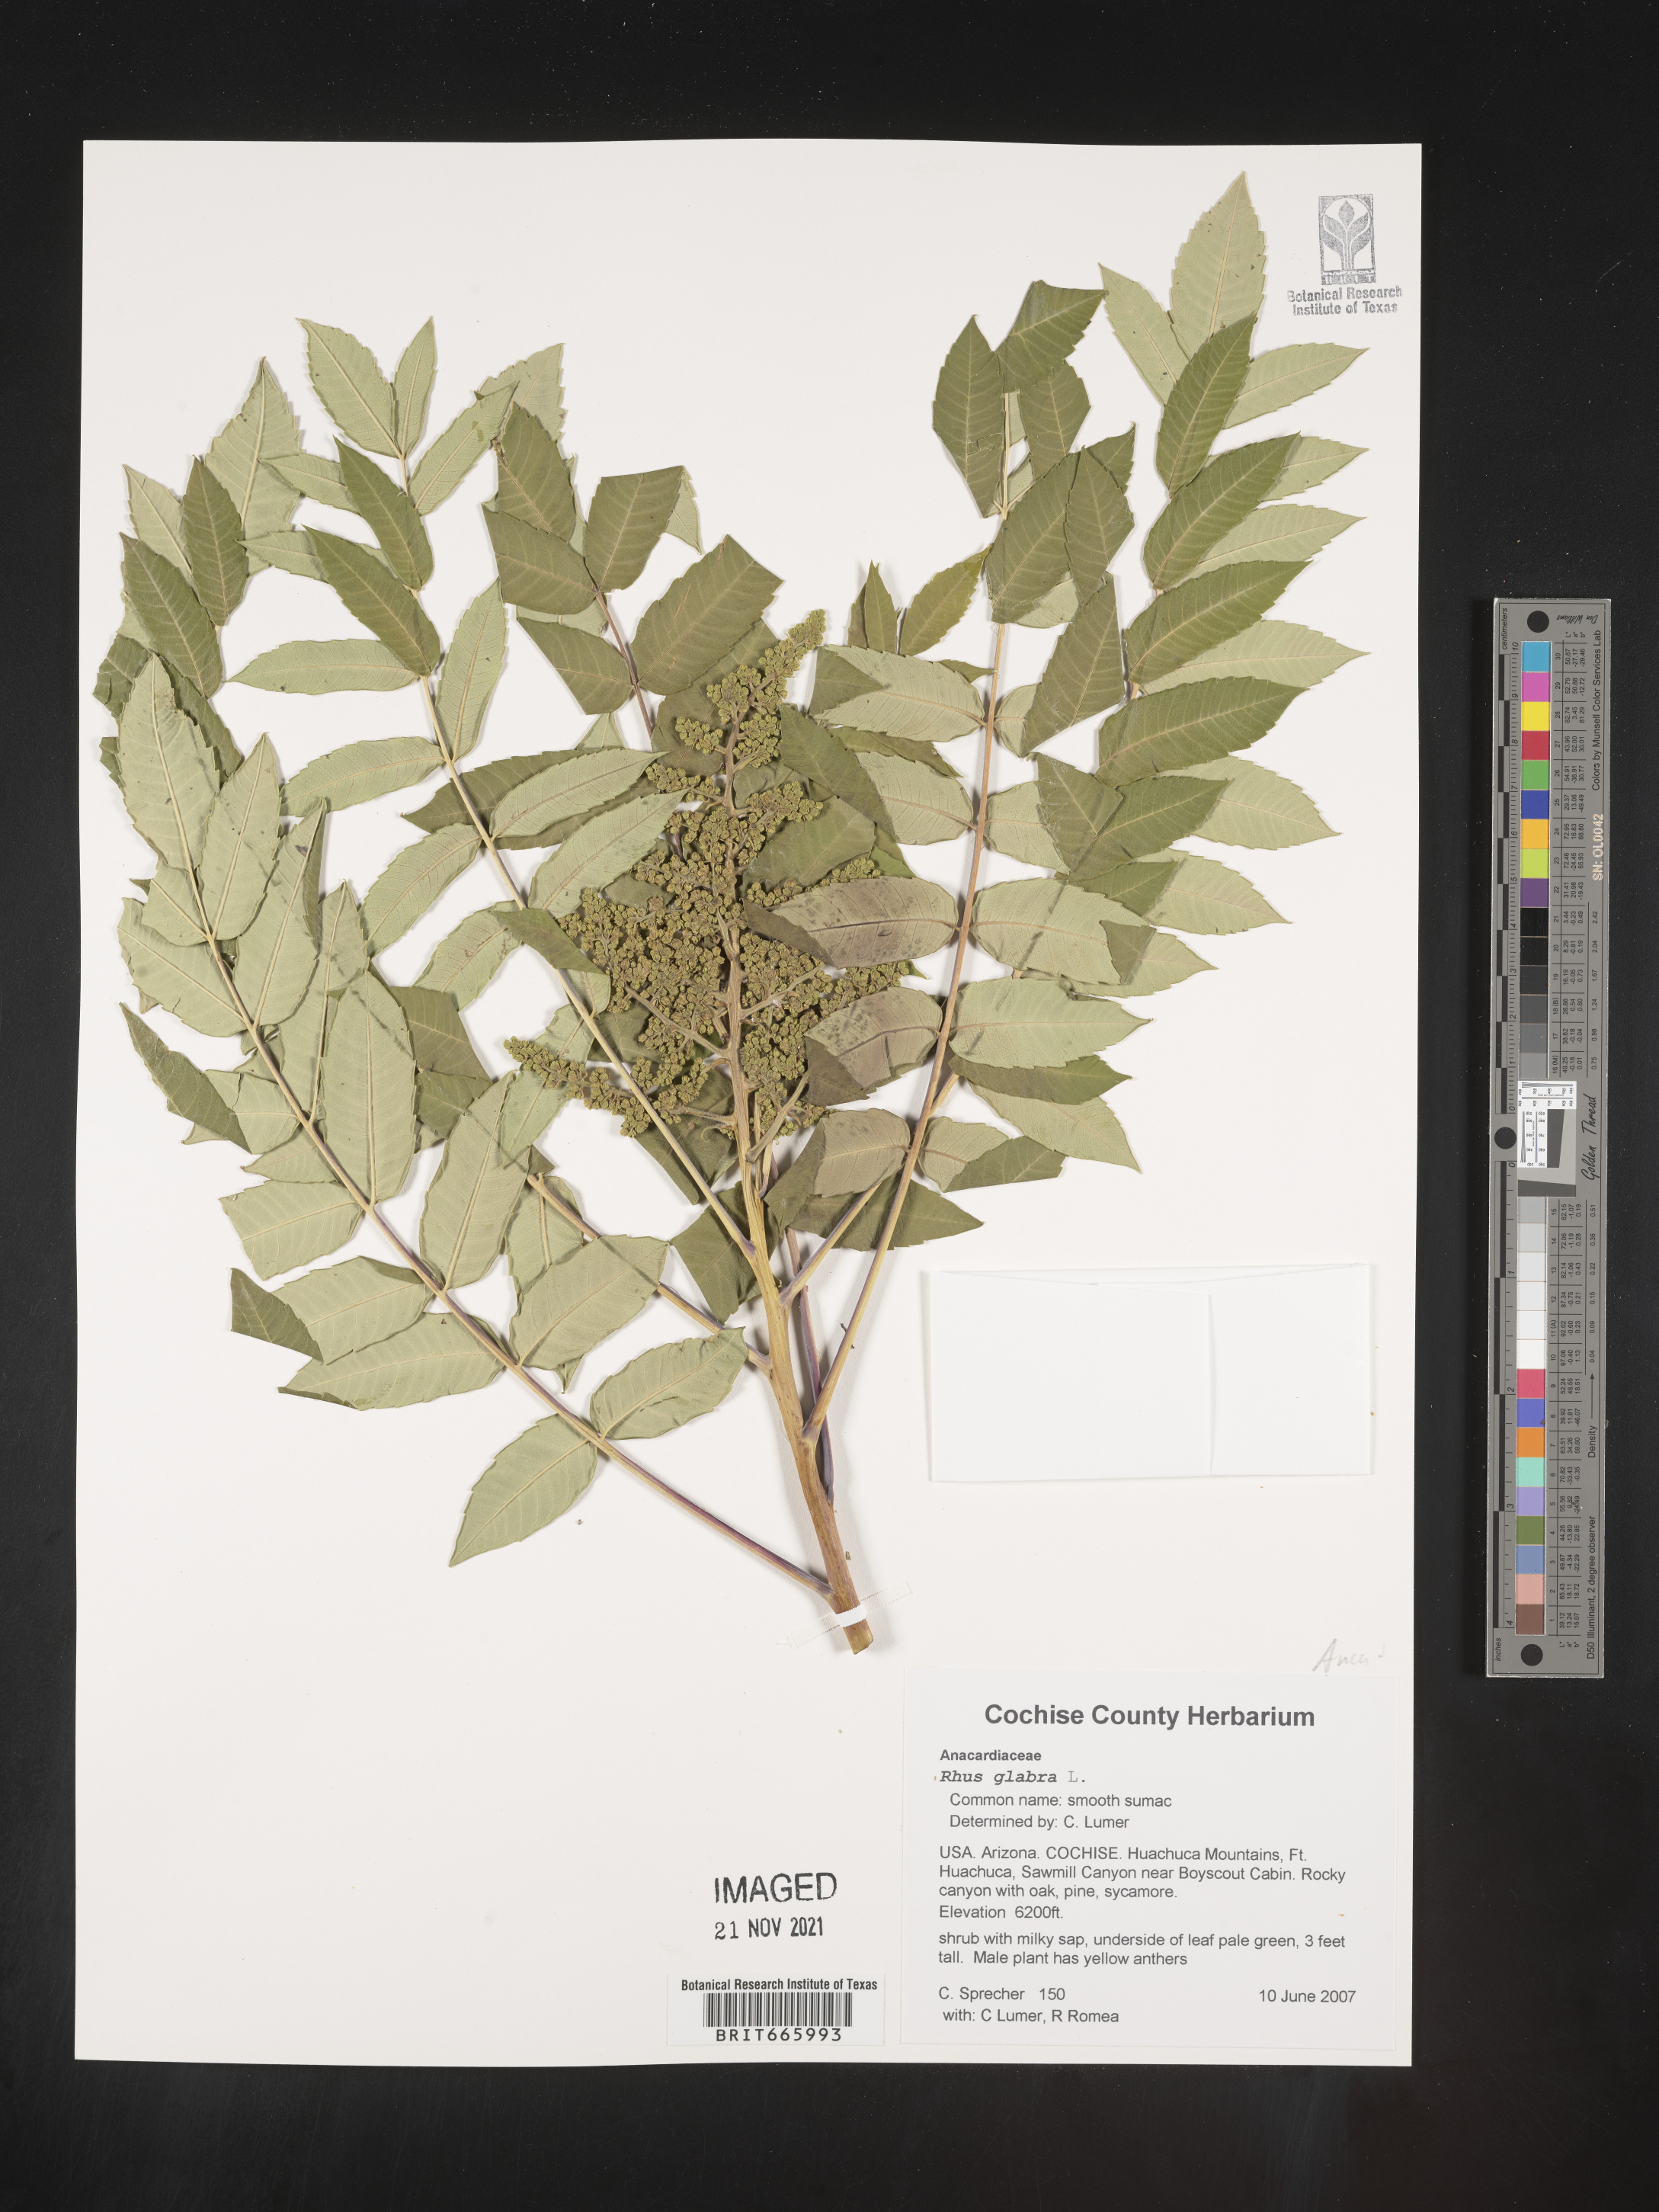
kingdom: Plantae
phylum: Tracheophyta
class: Magnoliopsida
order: Sapindales
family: Anacardiaceae
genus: Rhus
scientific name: Rhus glabra
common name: Scarlet sumac
